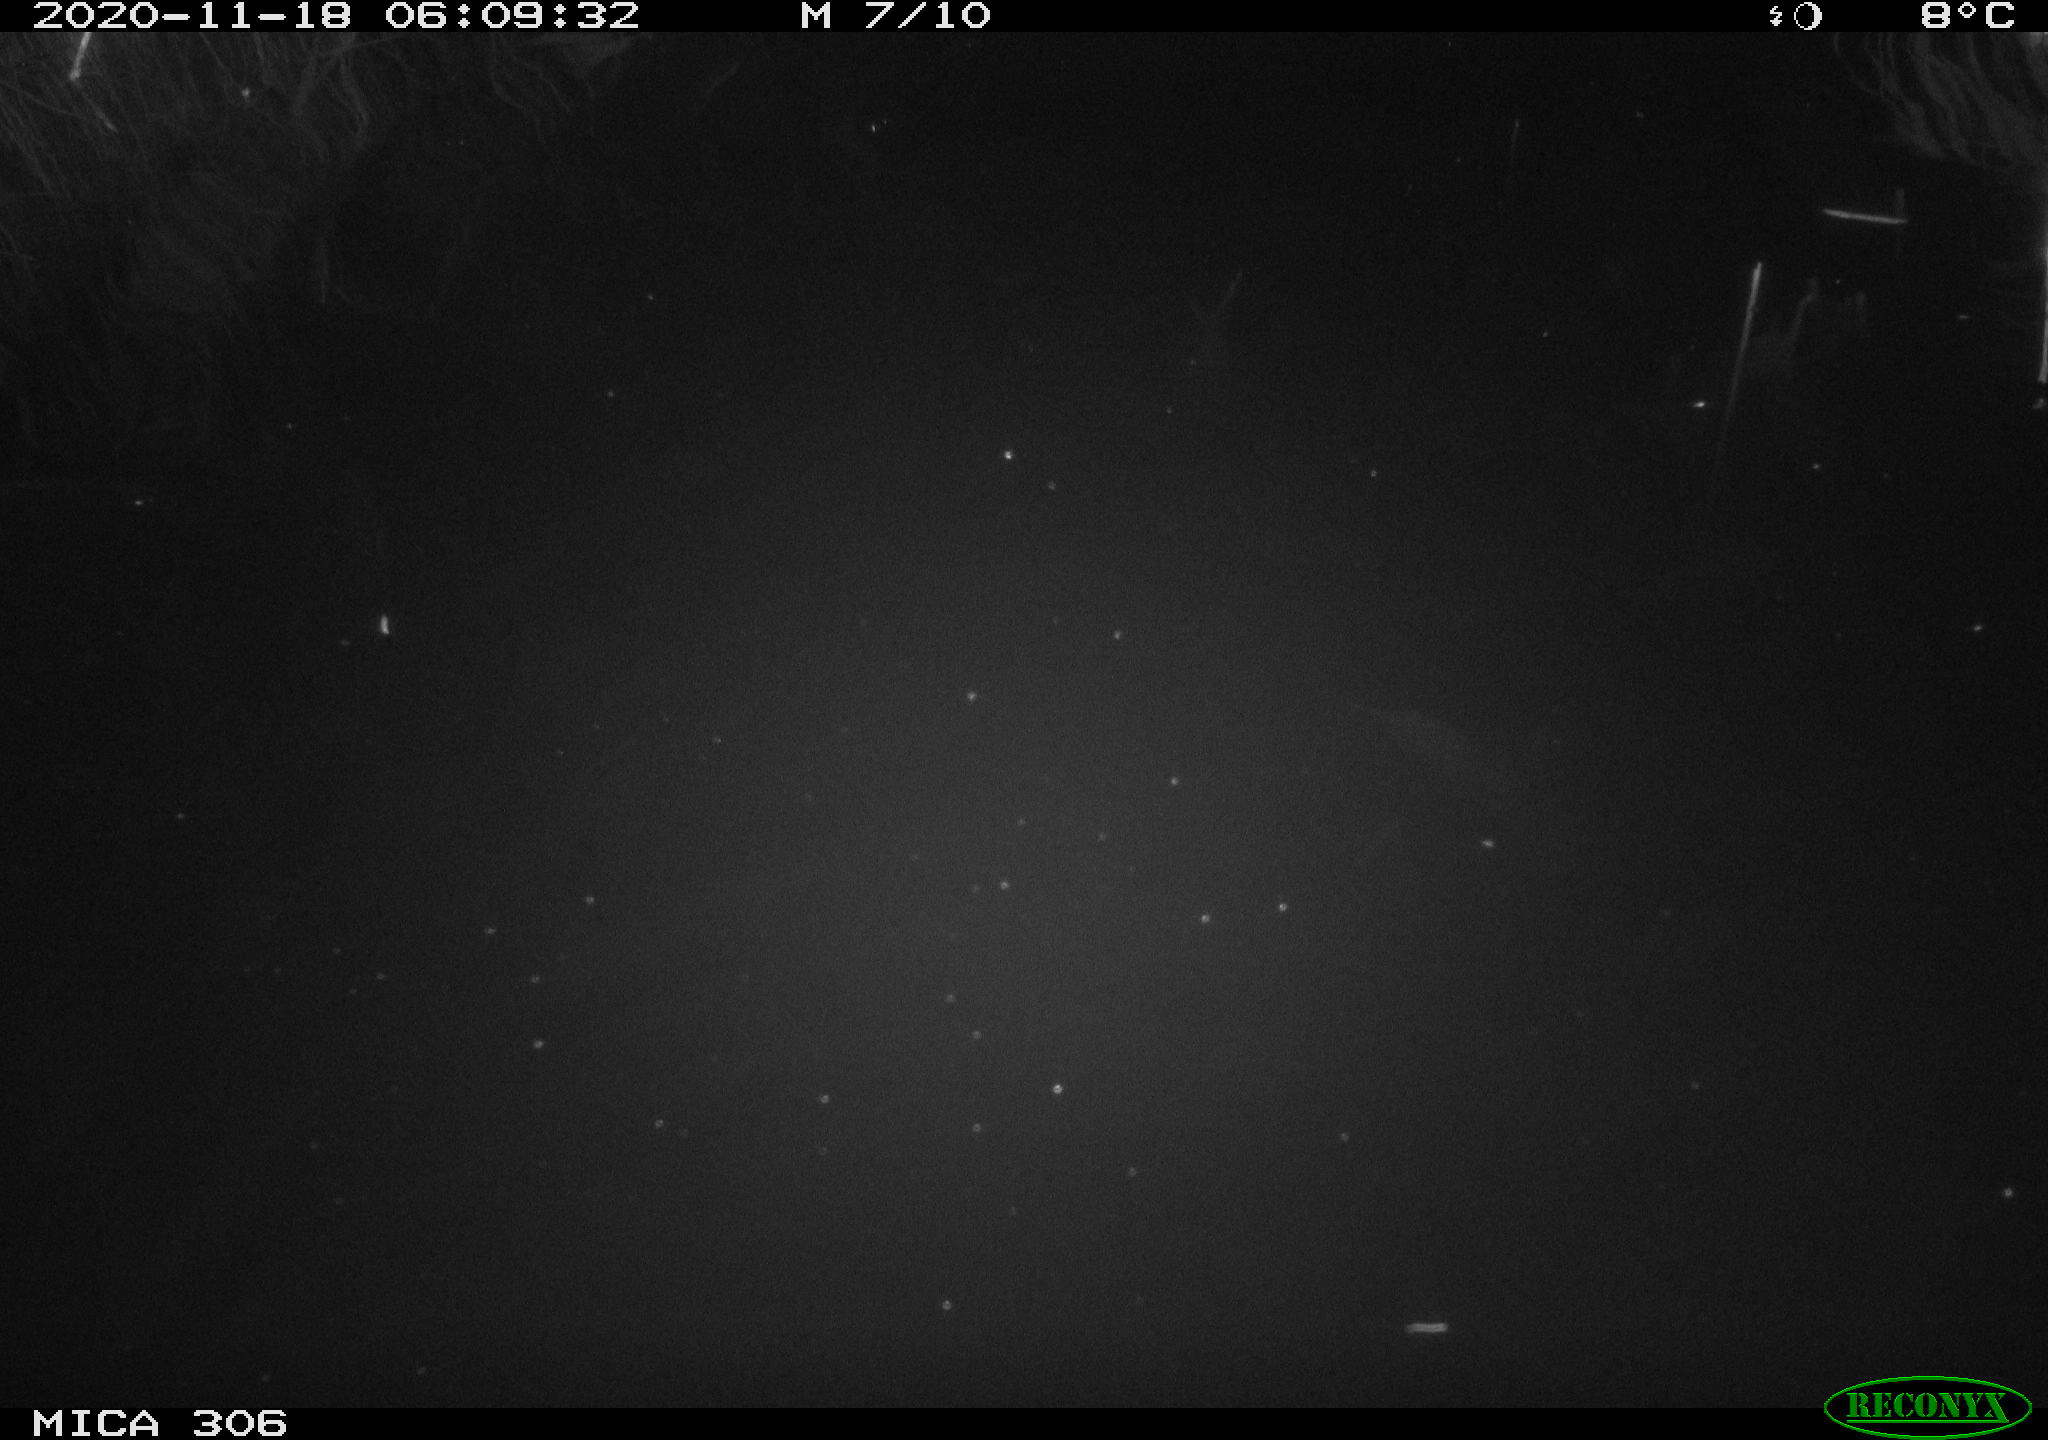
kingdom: Animalia
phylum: Chordata
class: Mammalia
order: Rodentia
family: Cricetidae
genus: Ondatra
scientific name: Ondatra zibethicus
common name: Muskrat
